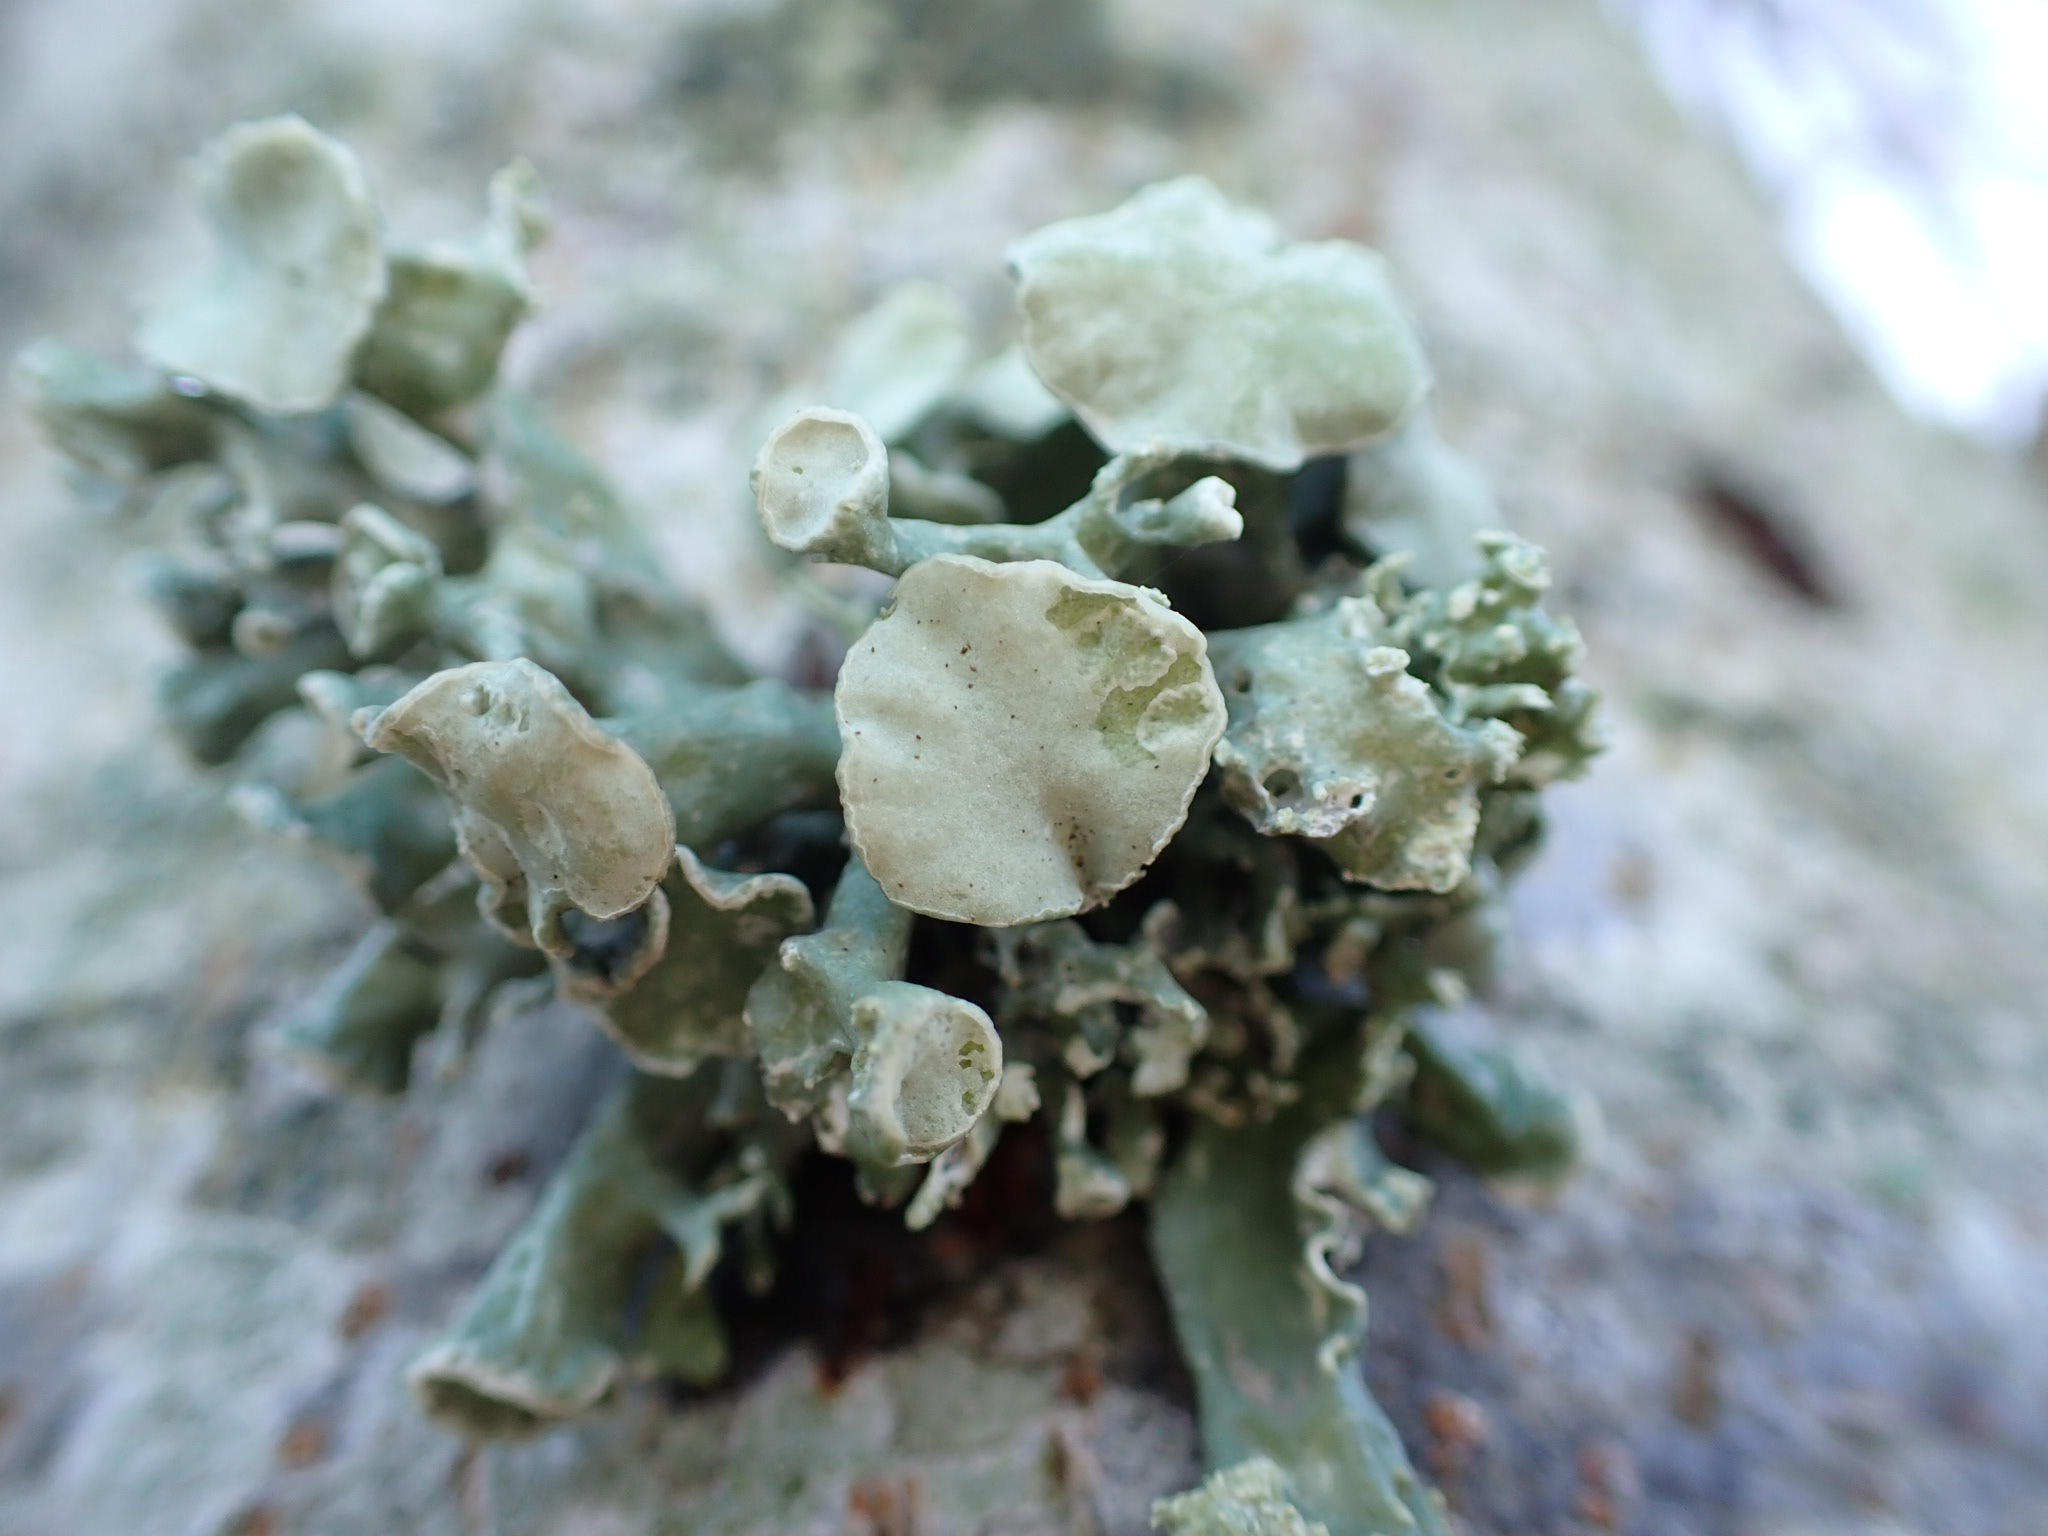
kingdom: Fungi
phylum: Ascomycota
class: Lecanoromycetes
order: Lecanorales
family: Ramalinaceae
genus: Ramalina
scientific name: Ramalina fastigiata
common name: tue-grenlav
